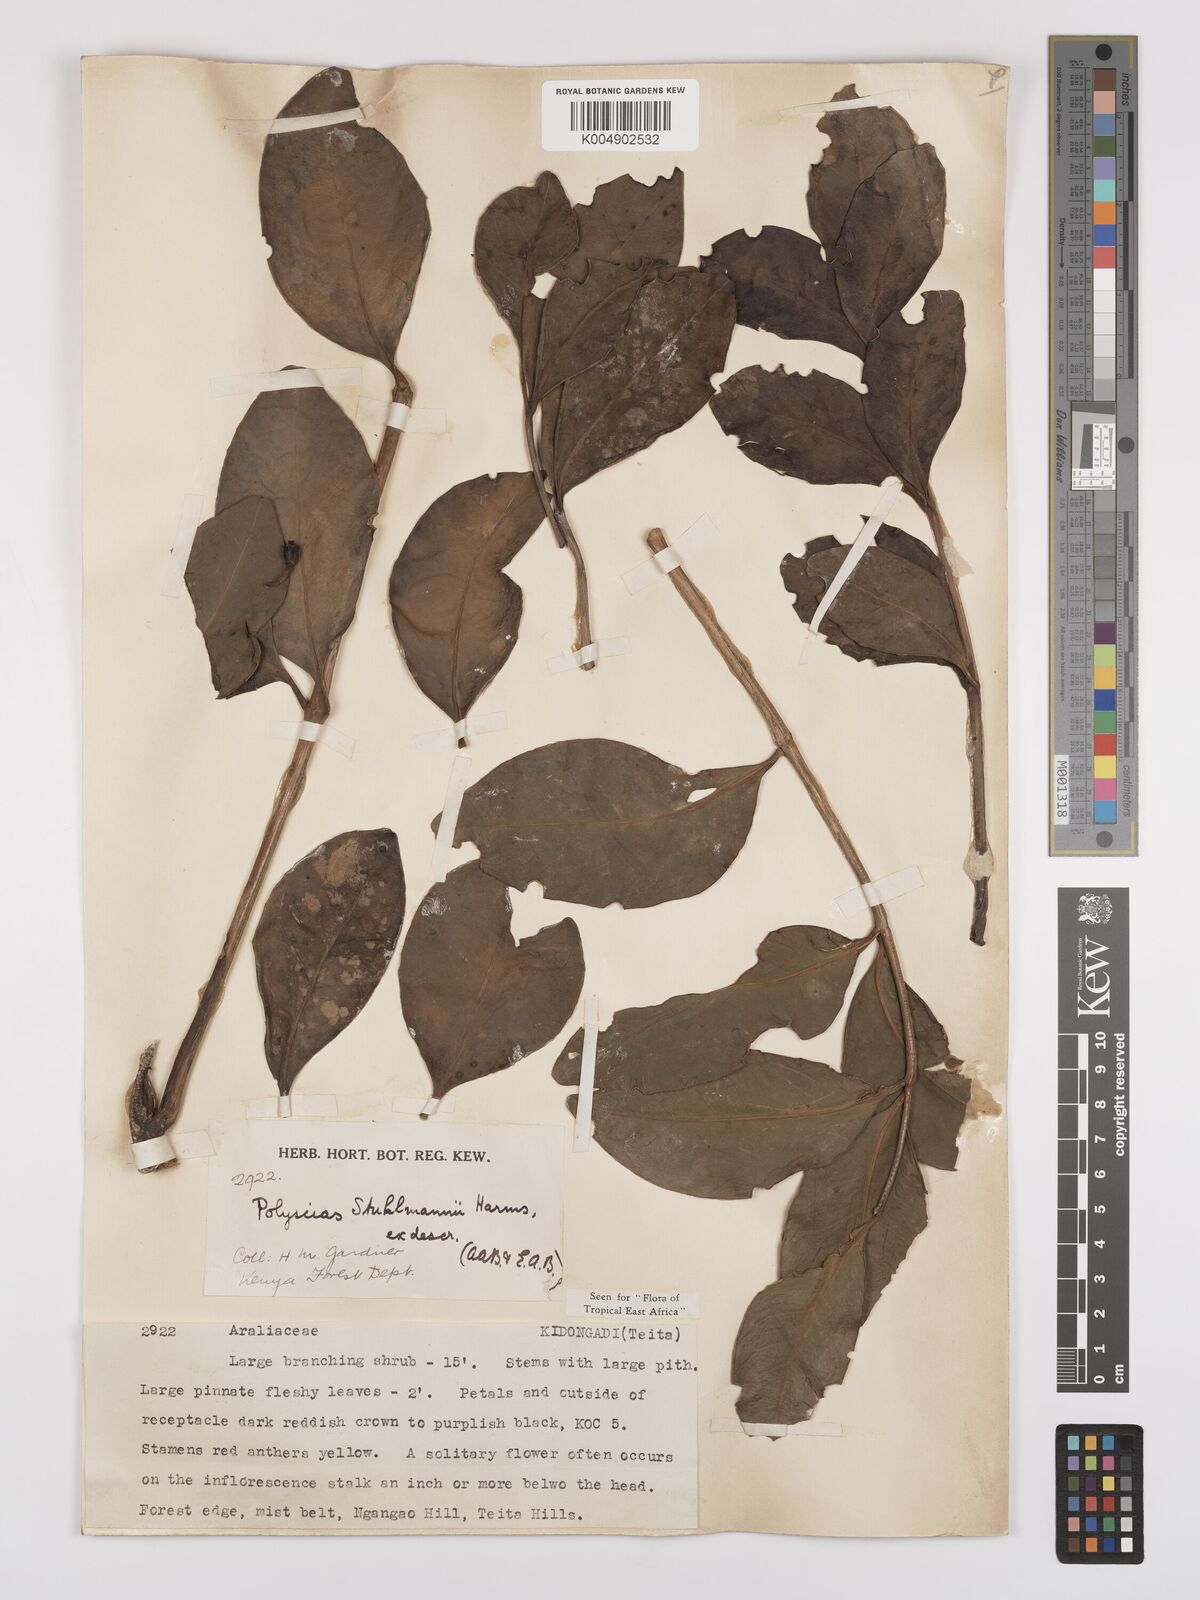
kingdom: Plantae
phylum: Tracheophyta
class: Magnoliopsida
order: Apiales
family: Araliaceae
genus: Polyscias
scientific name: Polyscias stuhlmannii
